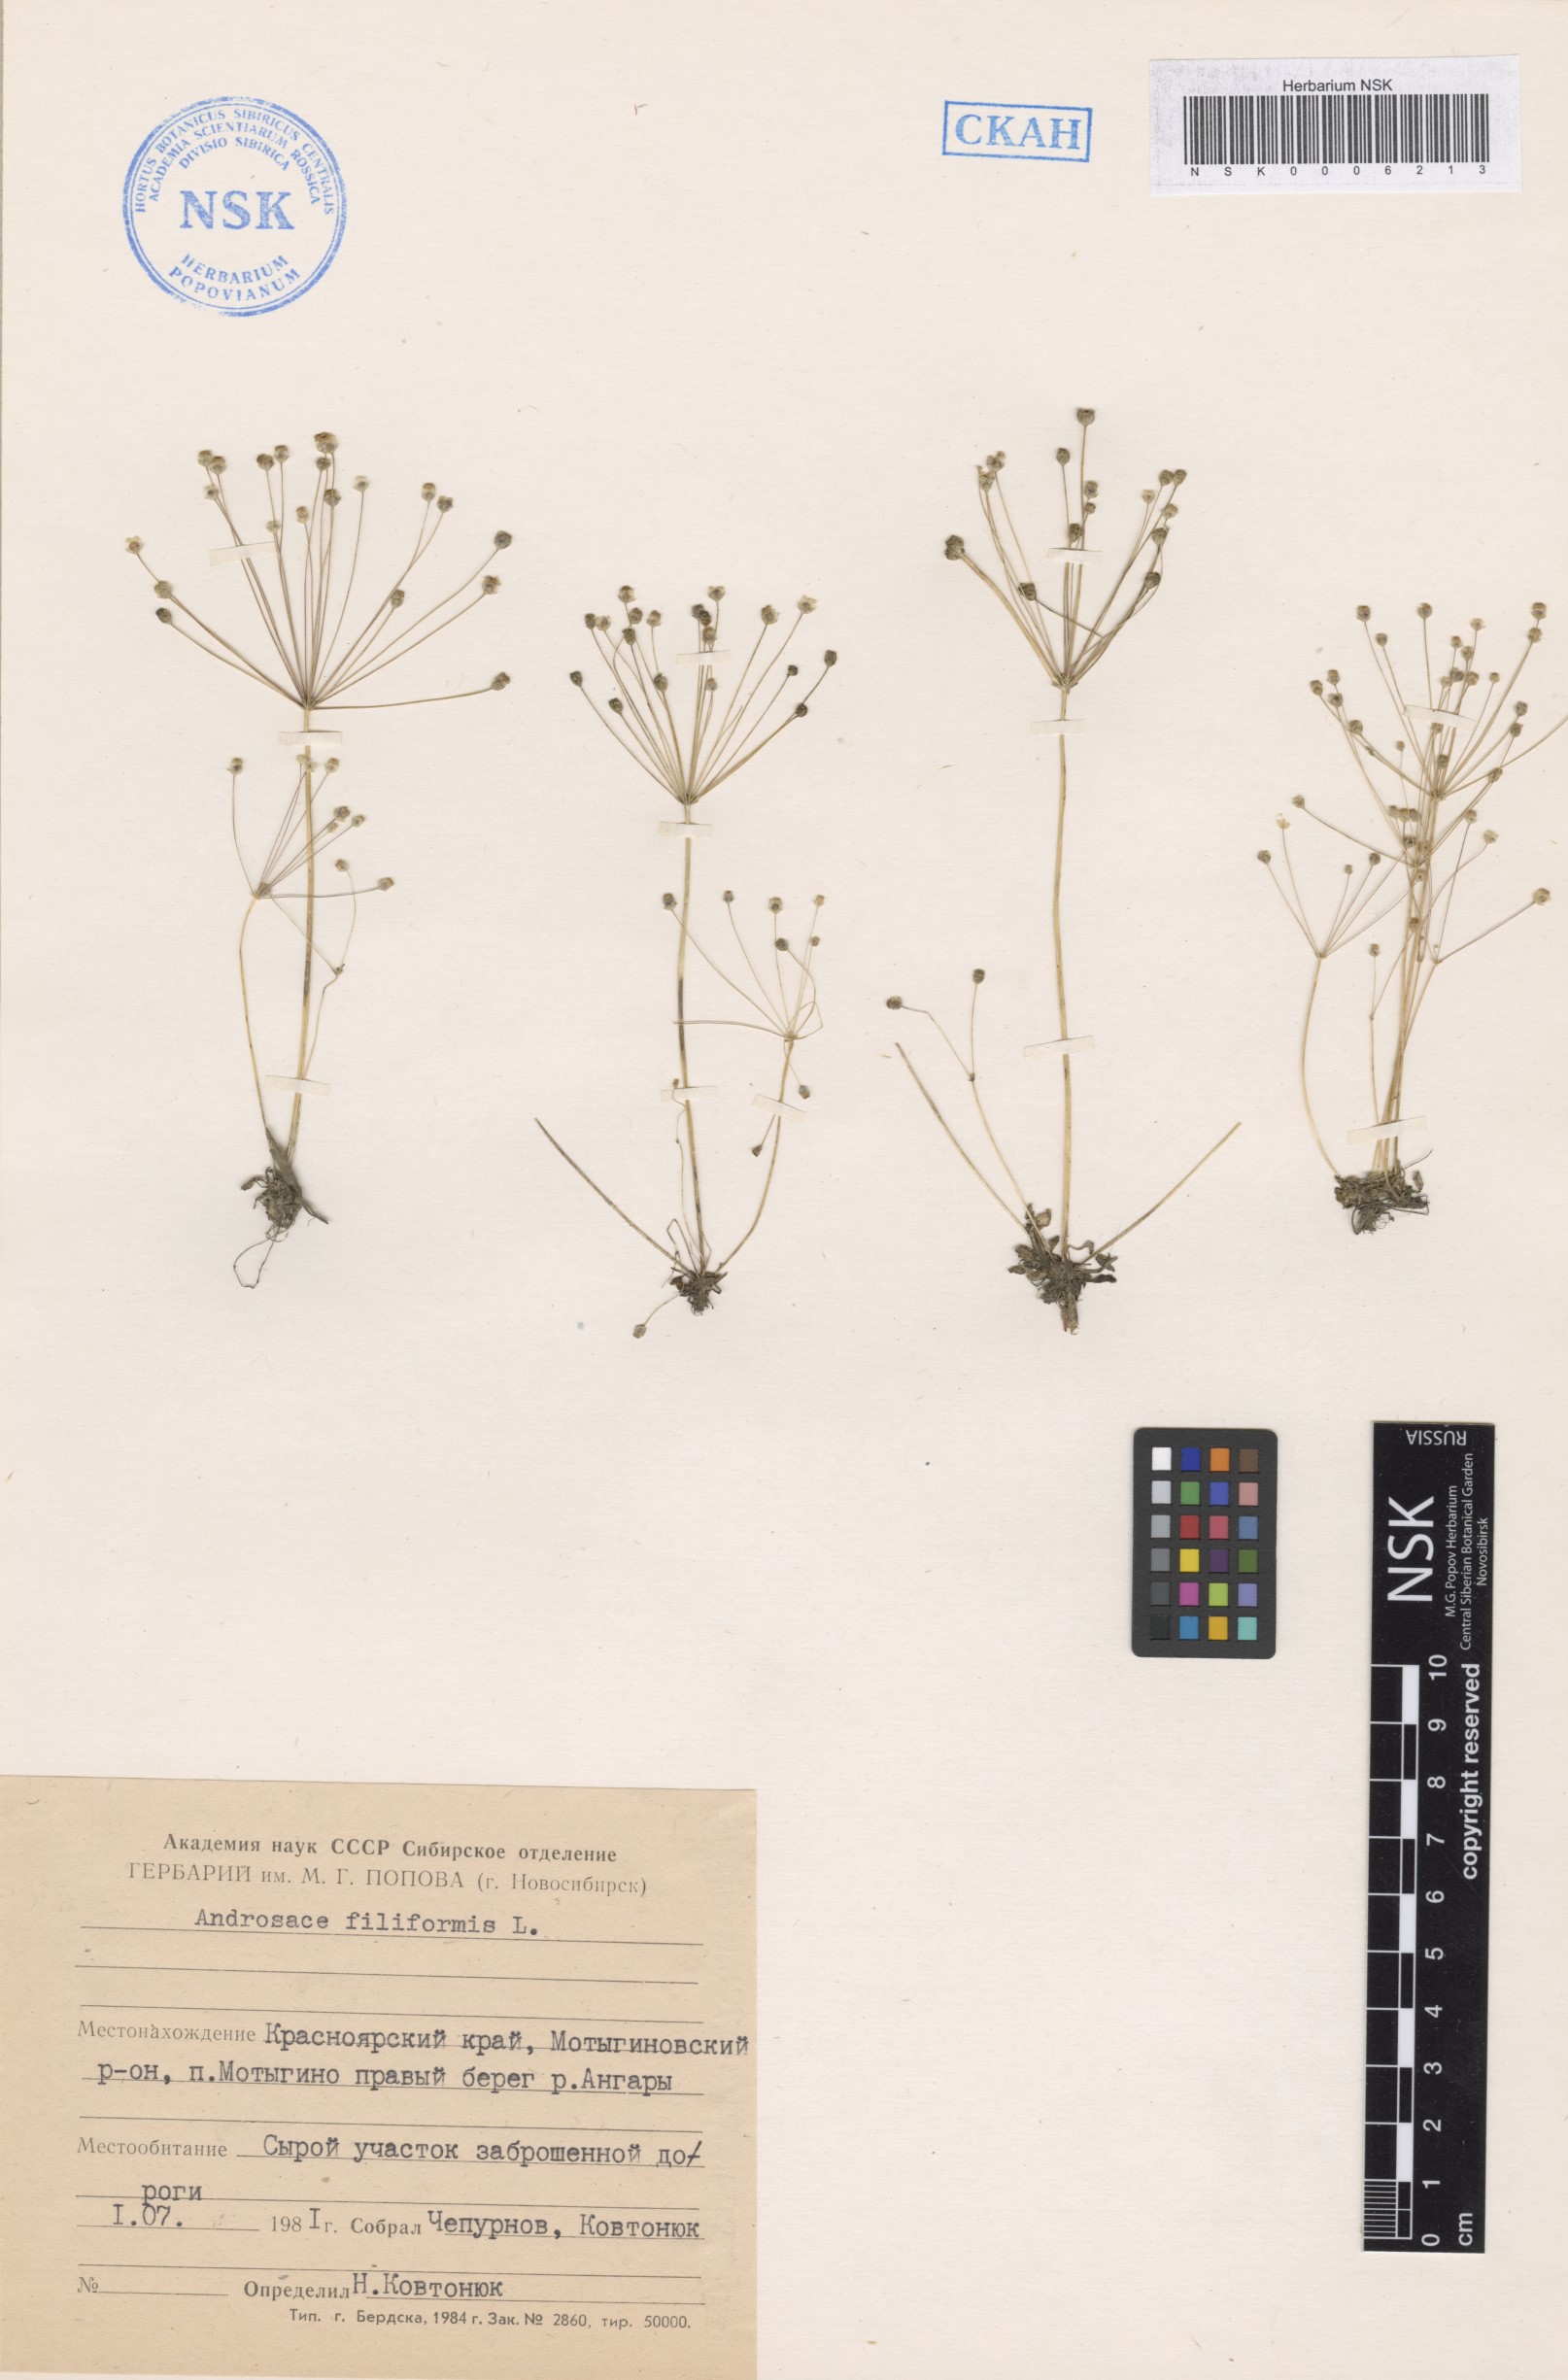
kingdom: Plantae
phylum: Tracheophyta
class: Magnoliopsida
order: Ericales
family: Primulaceae
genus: Androsace
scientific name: Androsace filiformis
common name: Filiform rock jasmine
